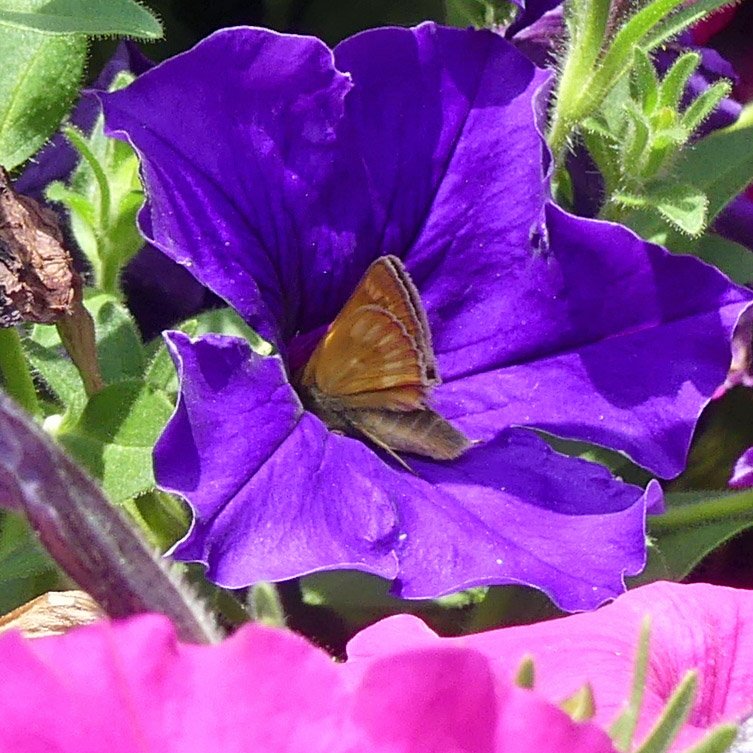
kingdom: Animalia
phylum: Arthropoda
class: Insecta
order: Lepidoptera
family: Hesperiidae
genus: Polites
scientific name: Polites
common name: Long Dash Skipper
